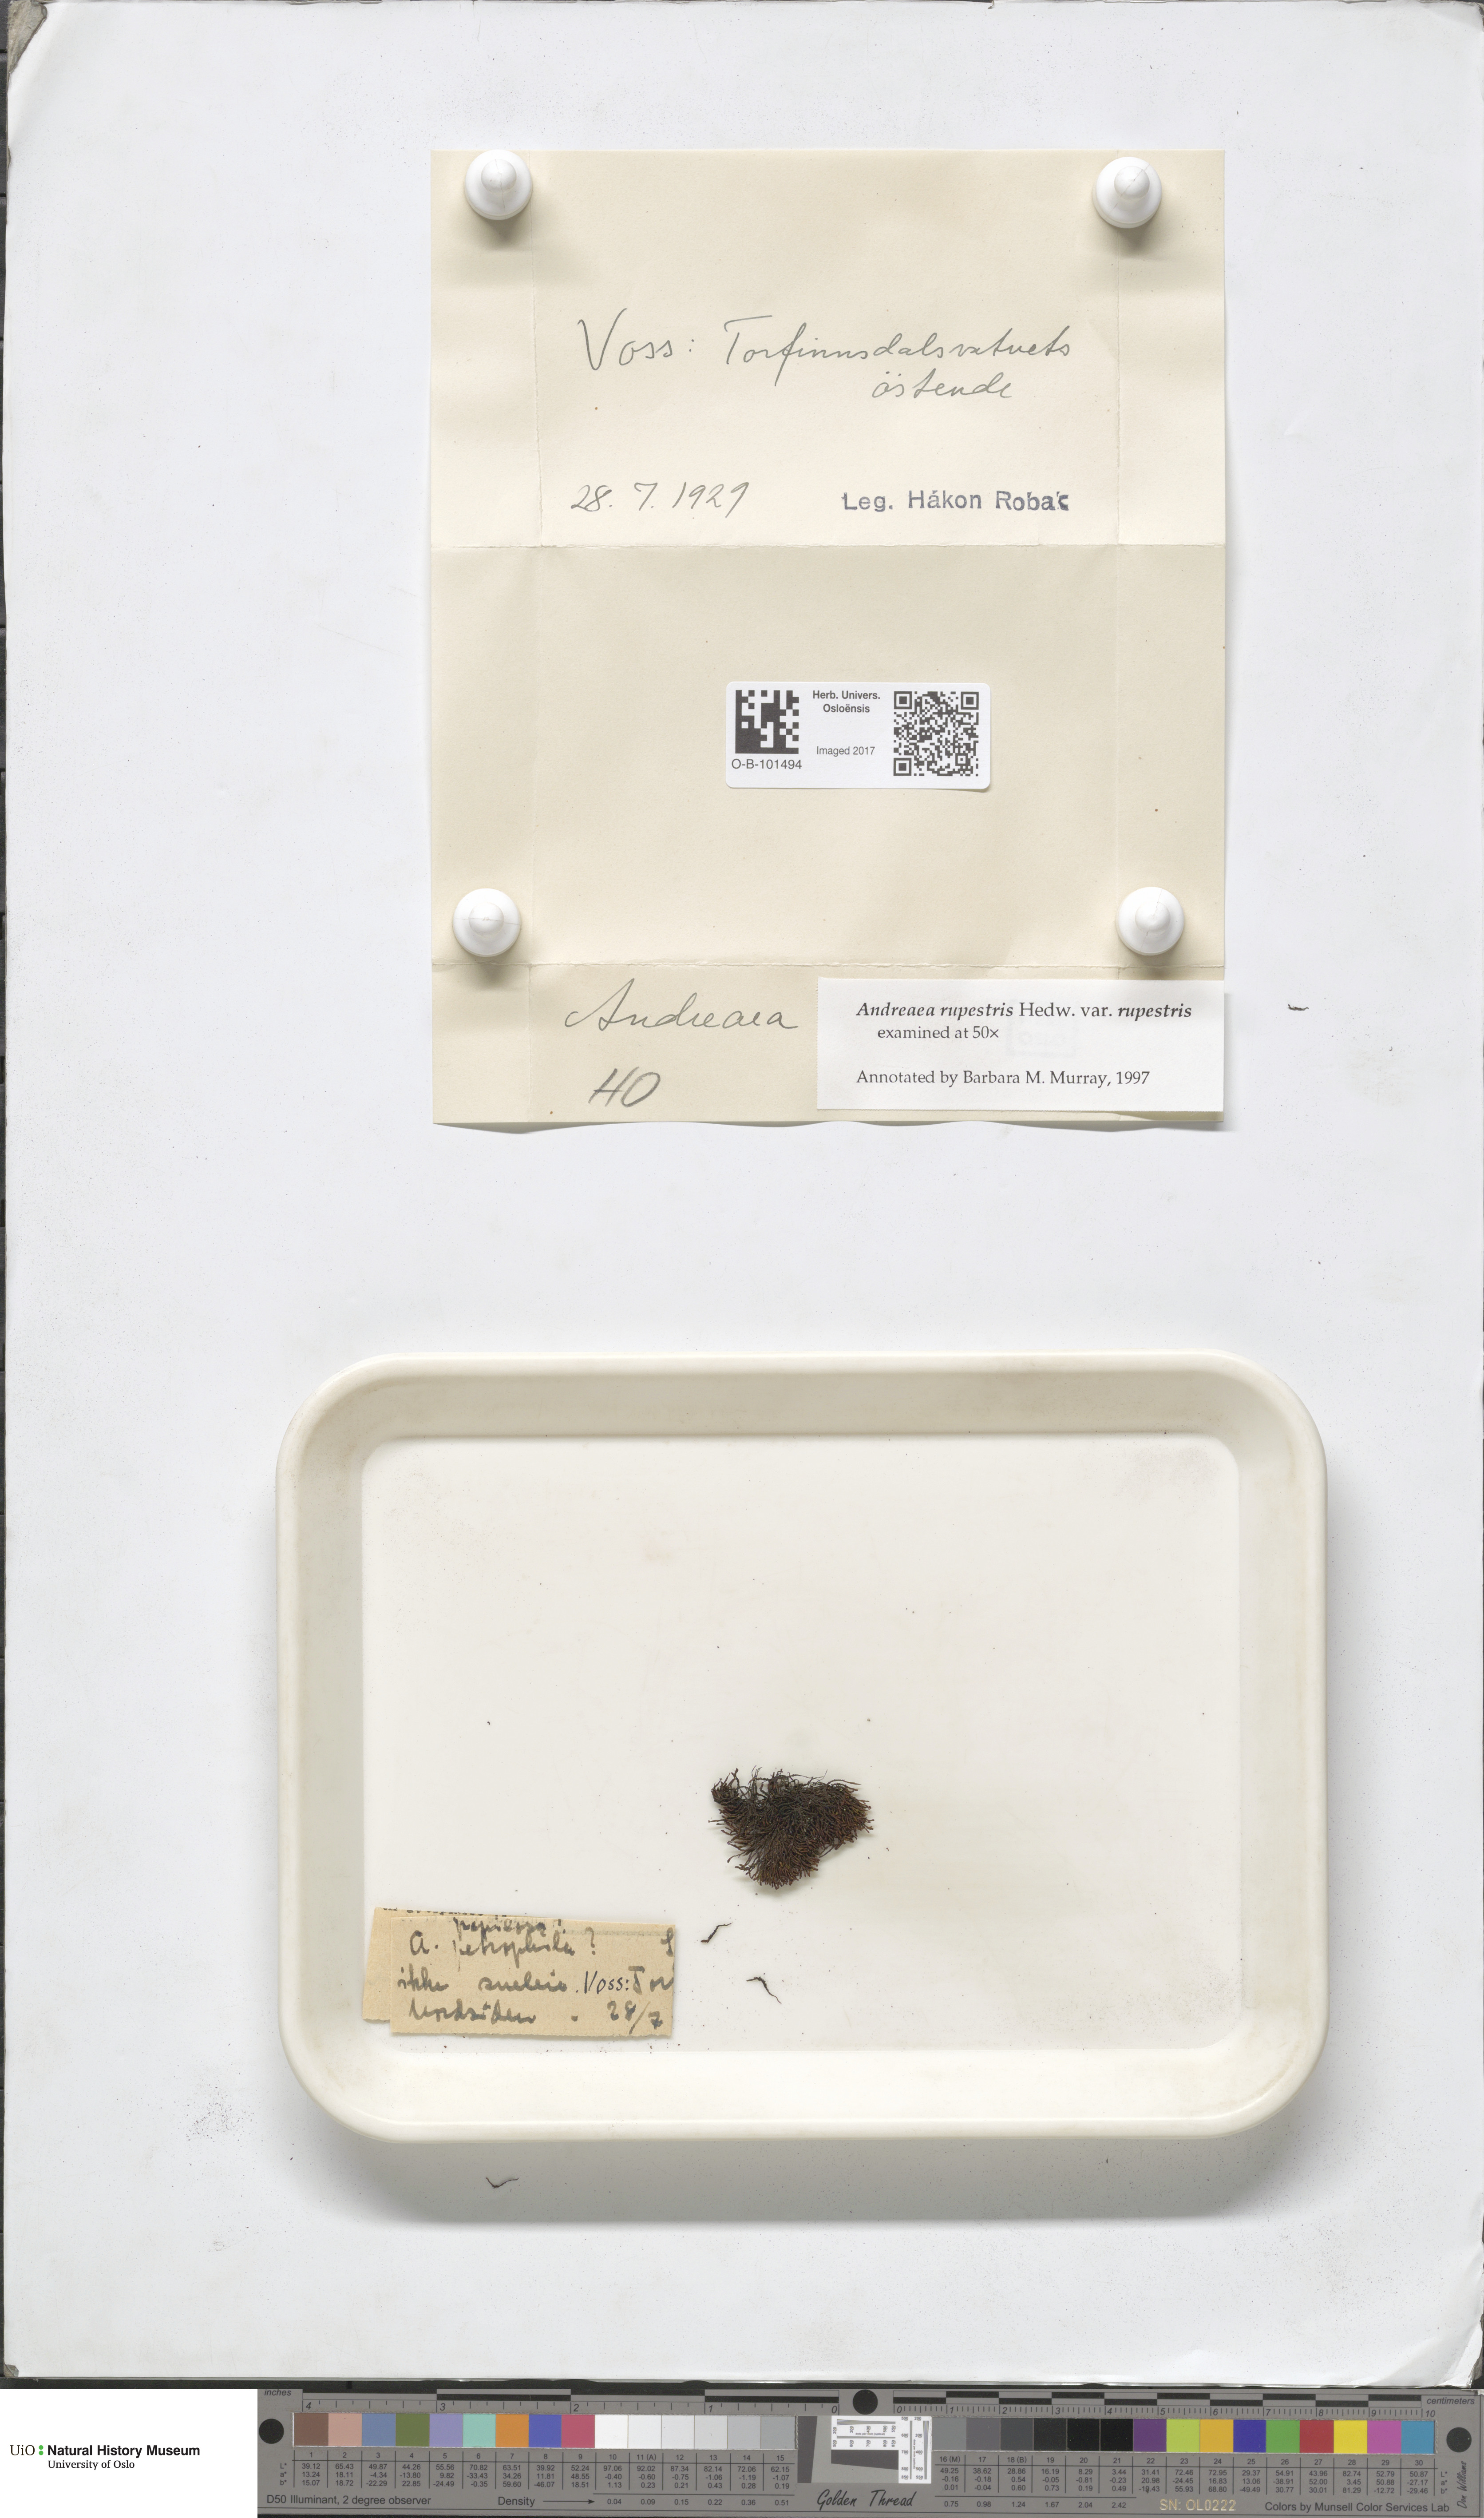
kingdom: Plantae
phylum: Bryophyta
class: Andreaeopsida
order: Andreaeales
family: Andreaeaceae
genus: Andreaea
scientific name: Andreaea rupestris
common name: Black rock moss
